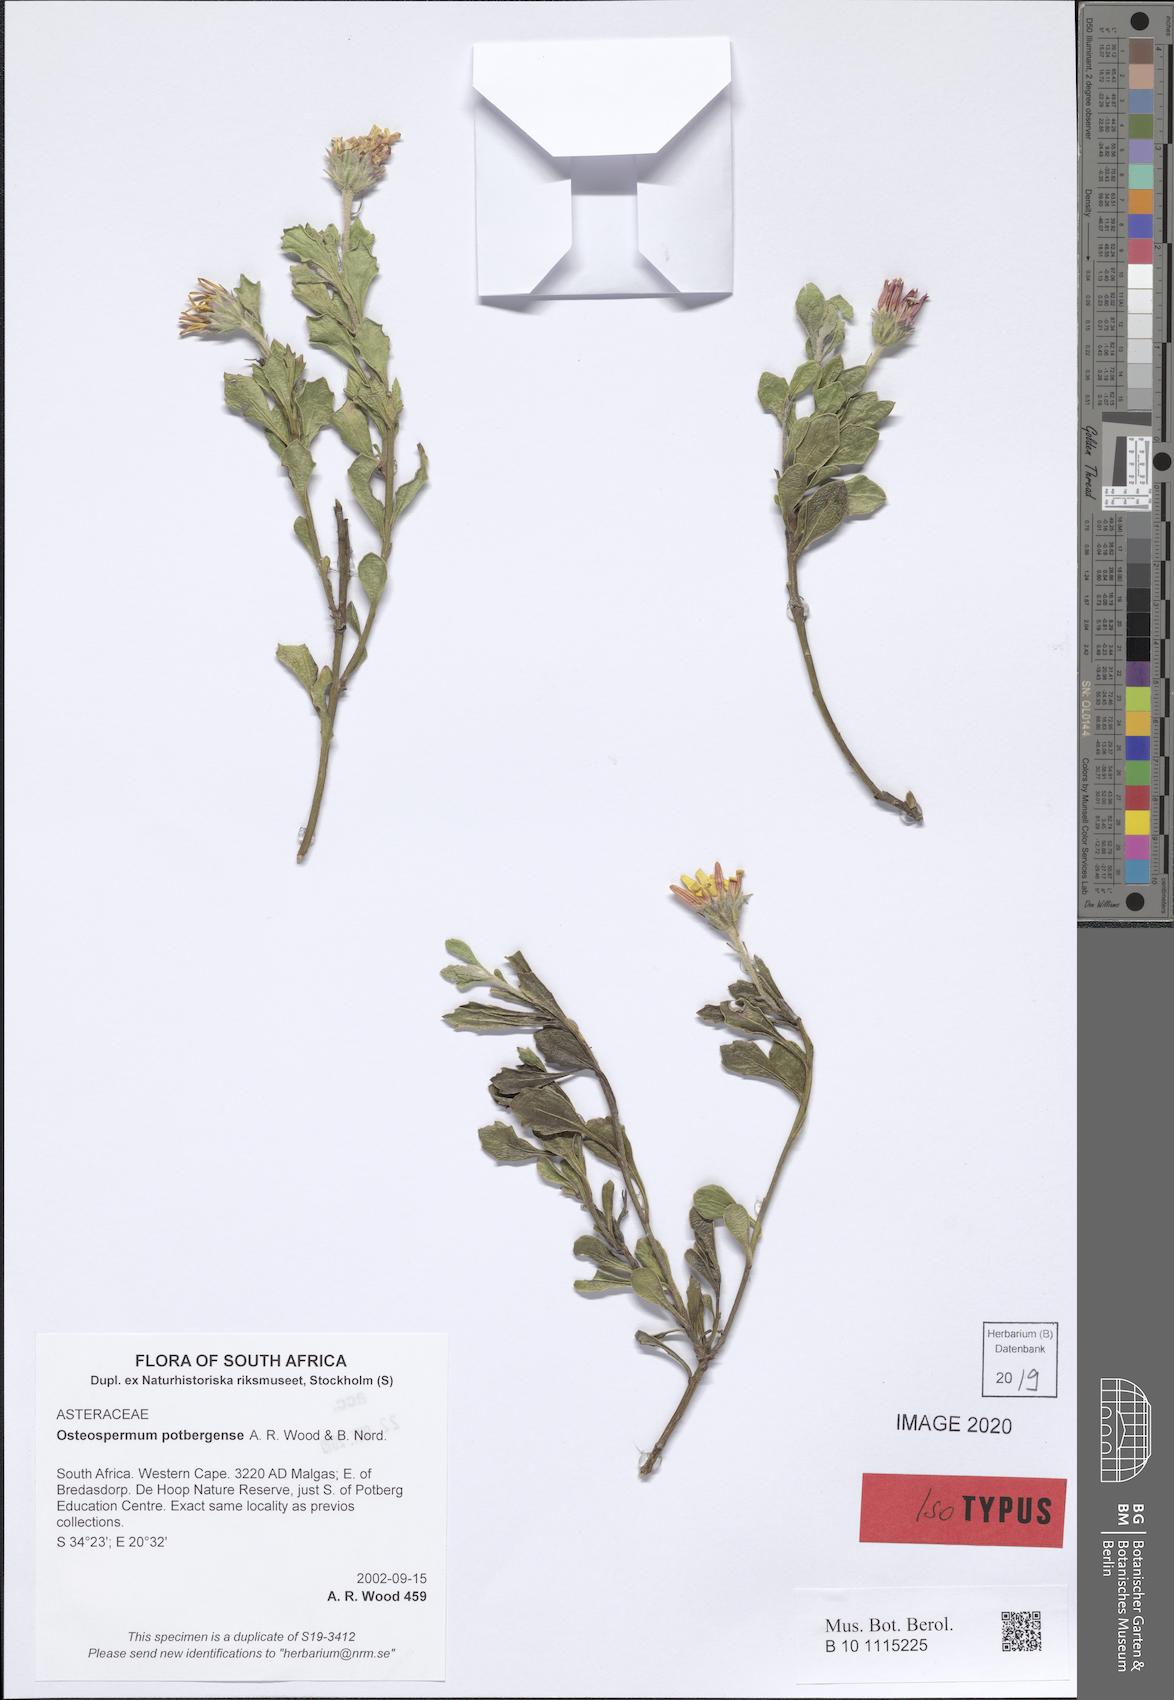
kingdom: Plantae
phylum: Tracheophyta
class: Magnoliopsida
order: Asterales
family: Asteraceae
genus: Osteospermum
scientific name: Osteospermum potbergense
